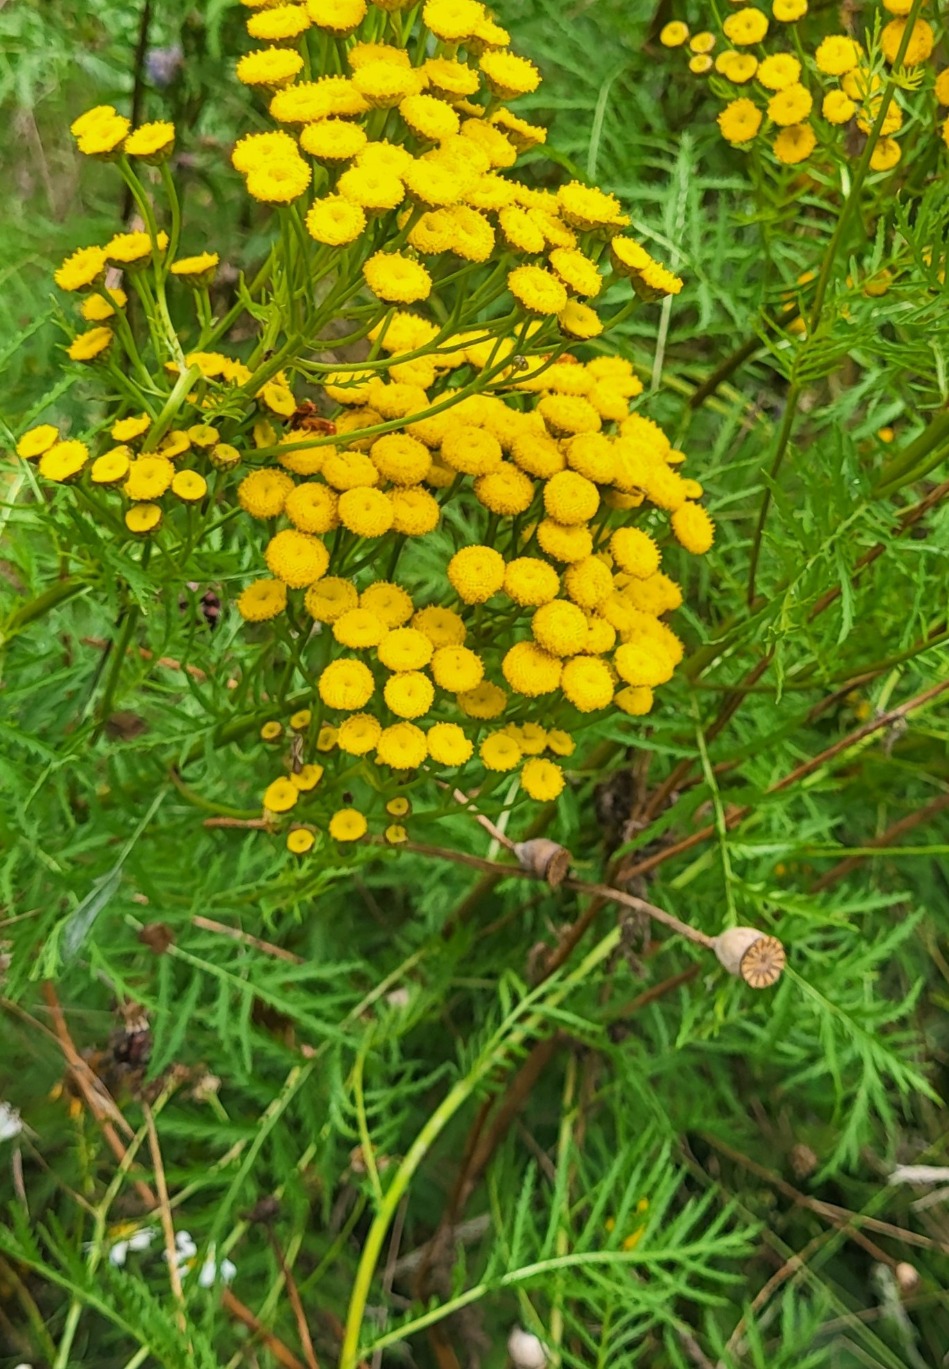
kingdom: Plantae
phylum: Tracheophyta
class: Magnoliopsida
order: Asterales
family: Asteraceae
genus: Tanacetum
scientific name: Tanacetum vulgare
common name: Rejnfan
